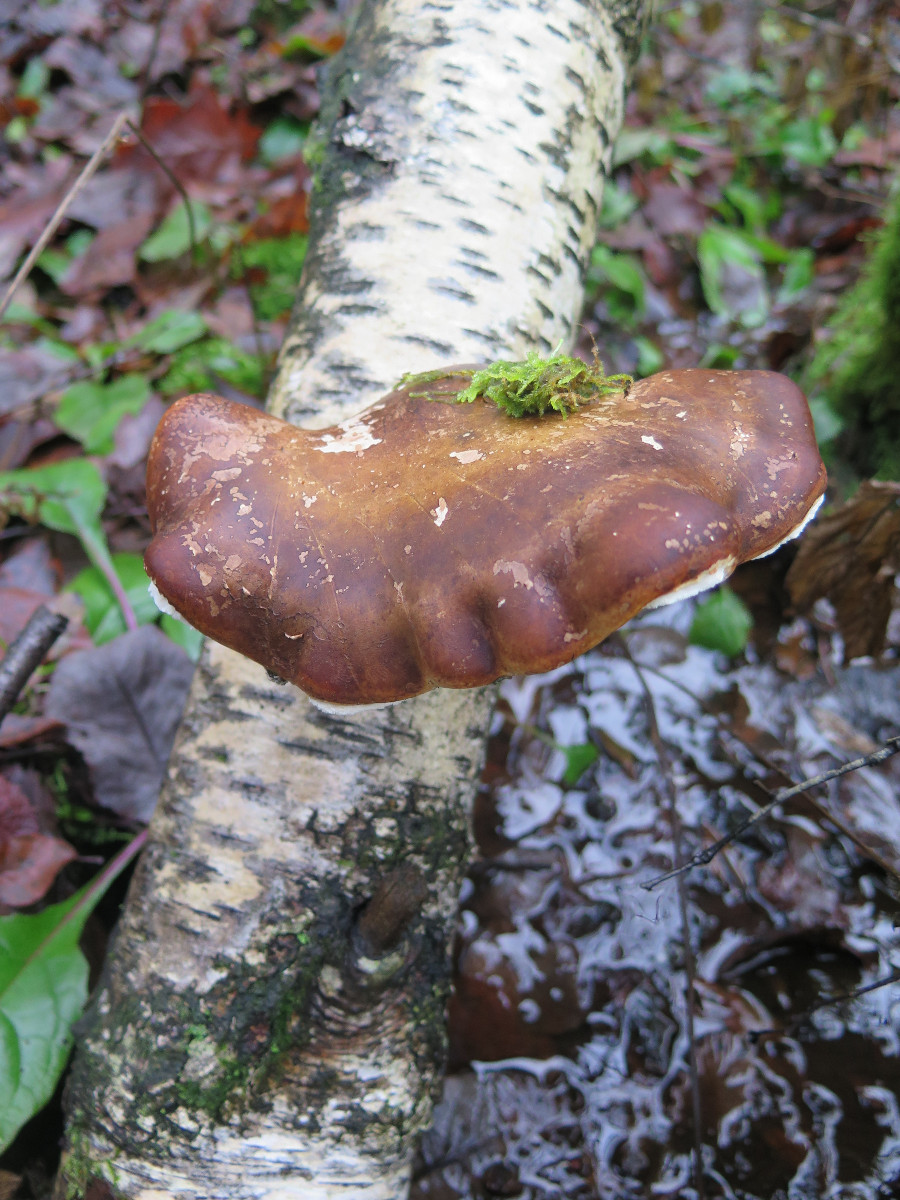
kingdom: Fungi
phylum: Basidiomycota
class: Agaricomycetes
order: Polyporales
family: Fomitopsidaceae
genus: Fomitopsis
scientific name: Fomitopsis betulina
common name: birkeporesvamp
